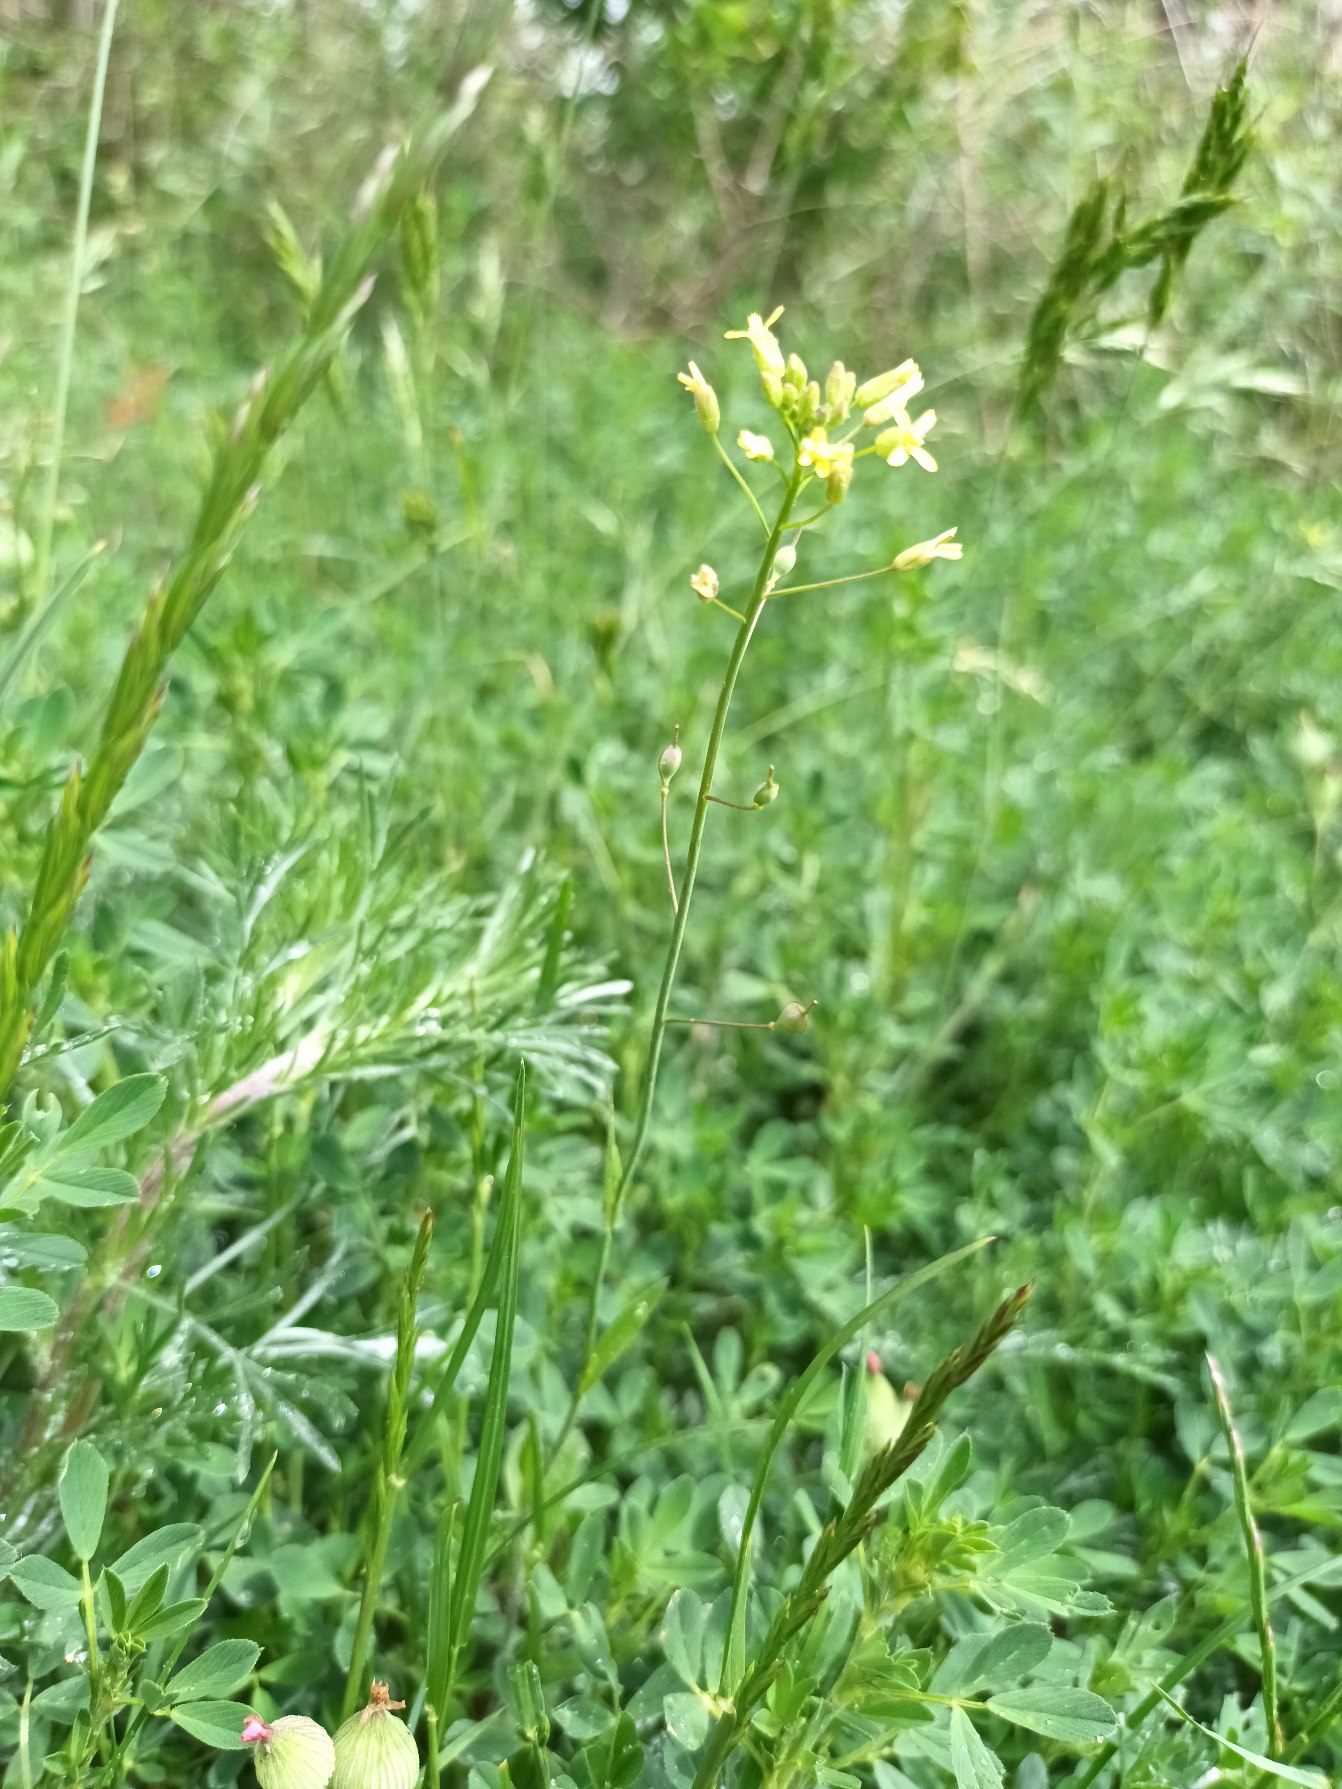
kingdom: Plantae
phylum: Tracheophyta
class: Magnoliopsida
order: Brassicales
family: Brassicaceae
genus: Camelina
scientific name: Camelina microcarpa
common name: Småskulpet dodder
